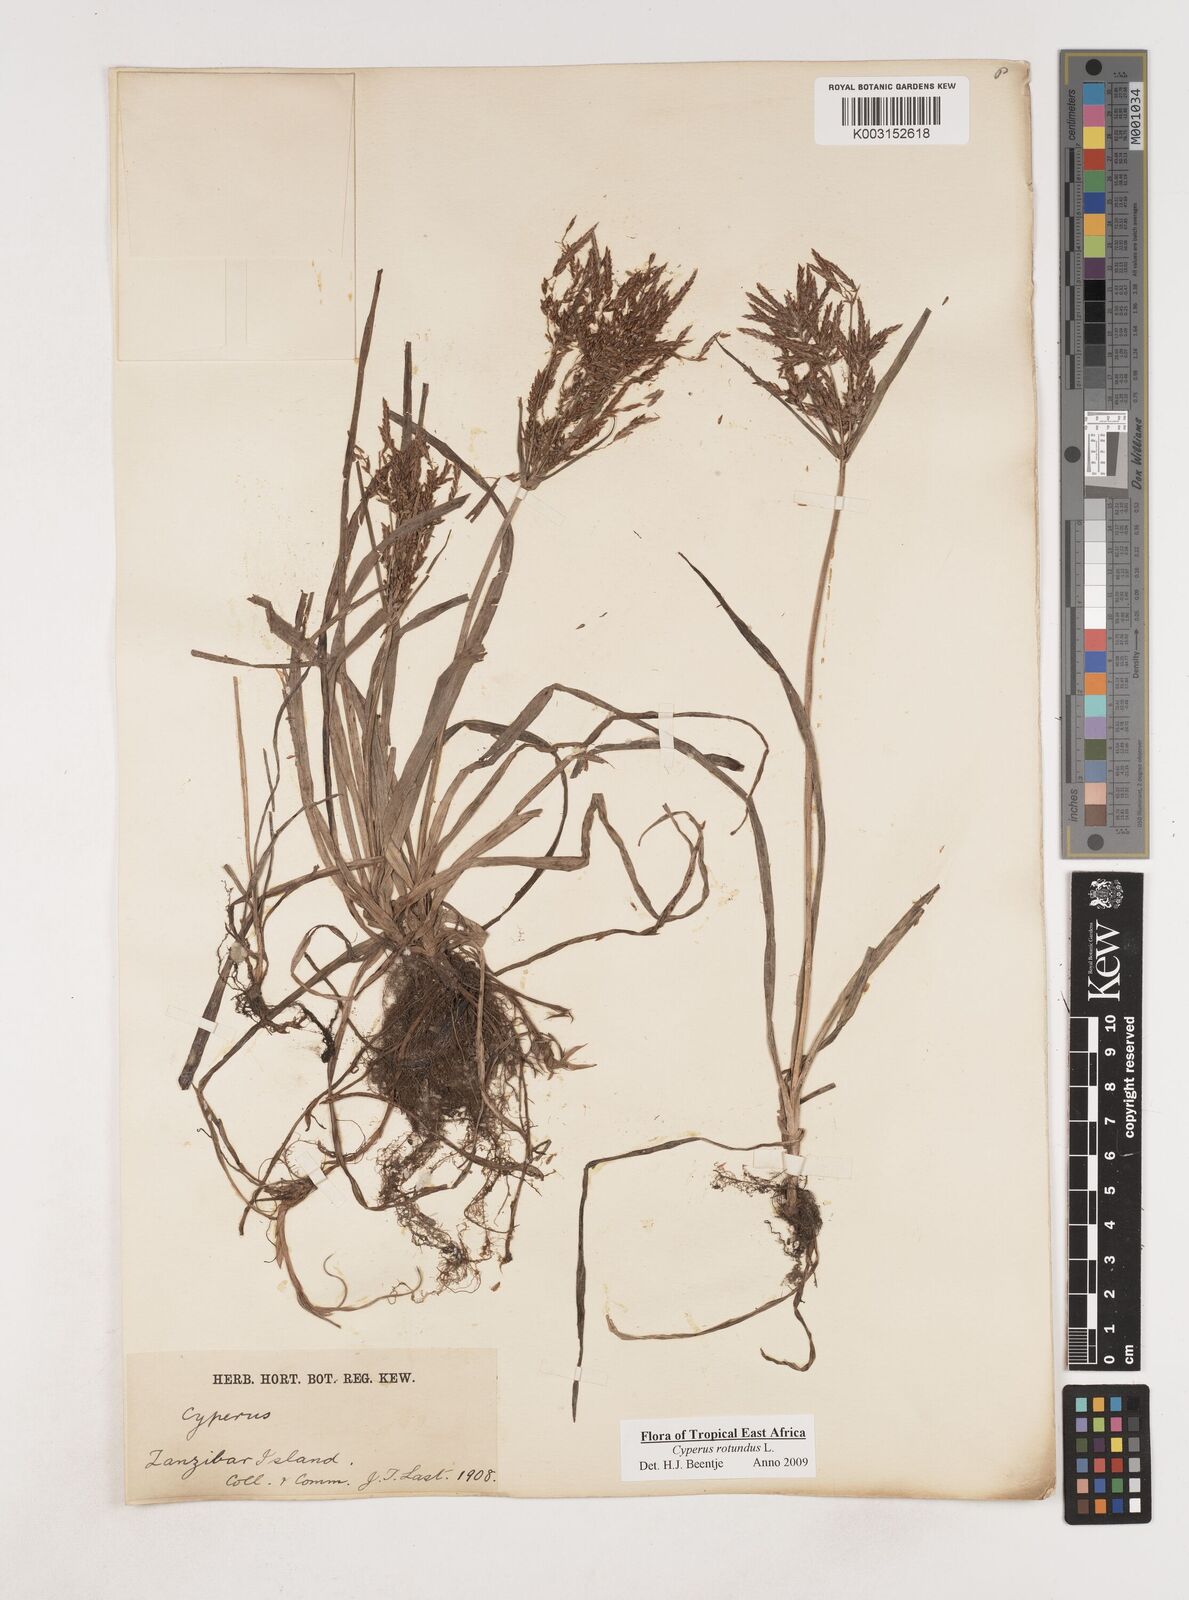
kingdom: Plantae
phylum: Tracheophyta
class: Liliopsida
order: Poales
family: Cyperaceae
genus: Cyperus
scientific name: Cyperus rotundus
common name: Nutgrass
